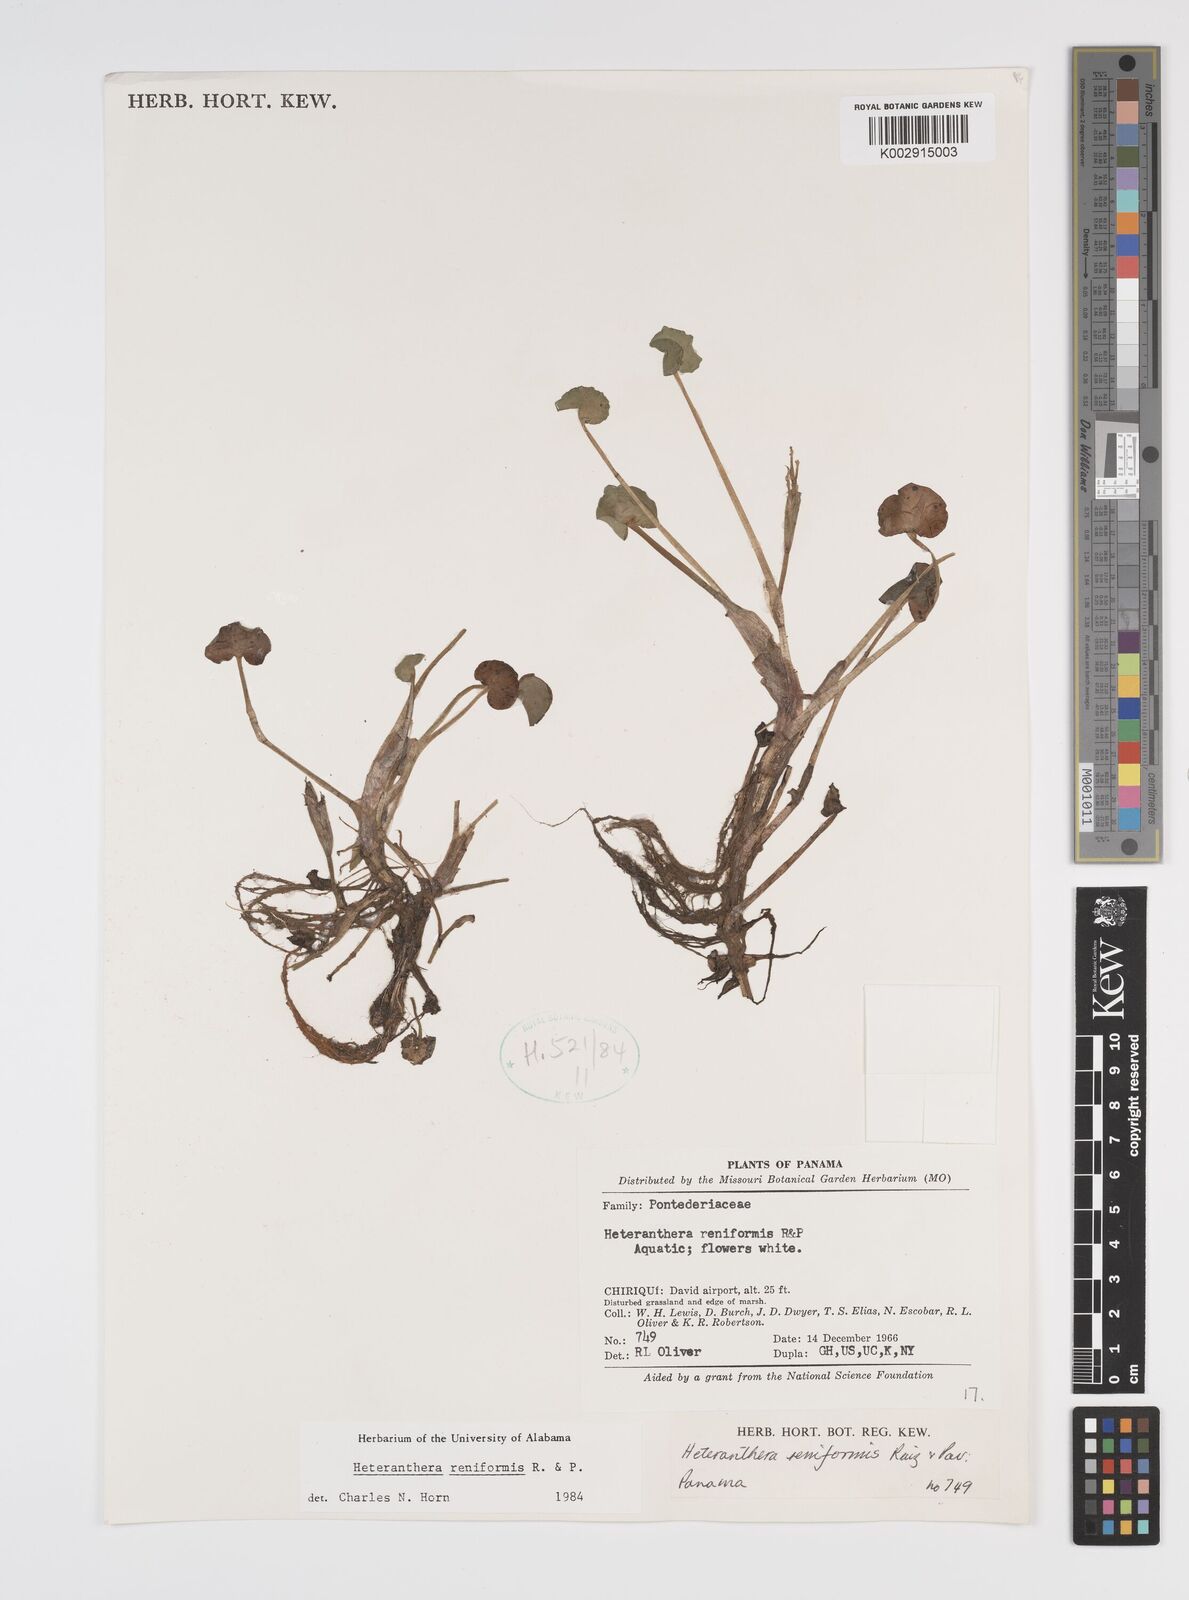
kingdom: Plantae
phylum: Tracheophyta
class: Liliopsida
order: Commelinales
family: Pontederiaceae
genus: Heteranthera
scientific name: Heteranthera reniformis
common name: Kidneyleaf mudplantain
